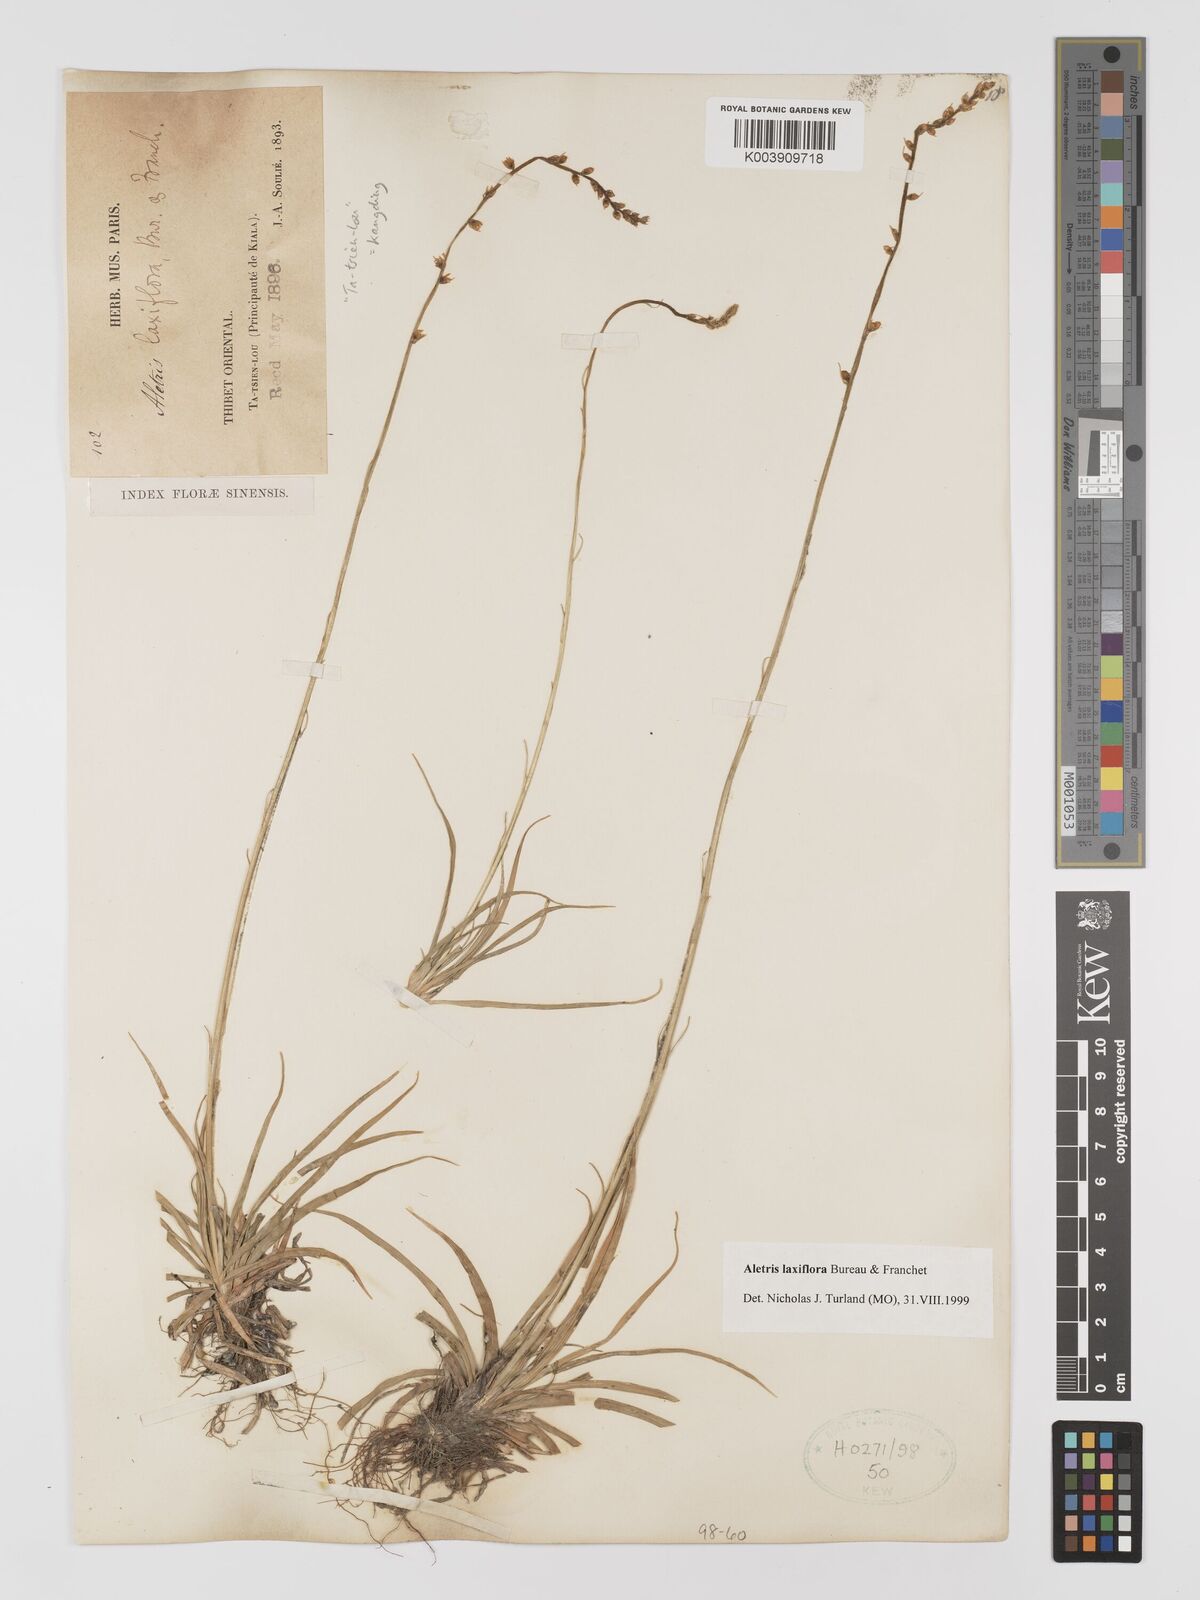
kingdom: Plantae
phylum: Tracheophyta
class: Liliopsida
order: Dioscoreales
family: Nartheciaceae
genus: Aletris
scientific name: Aletris laxiflora
